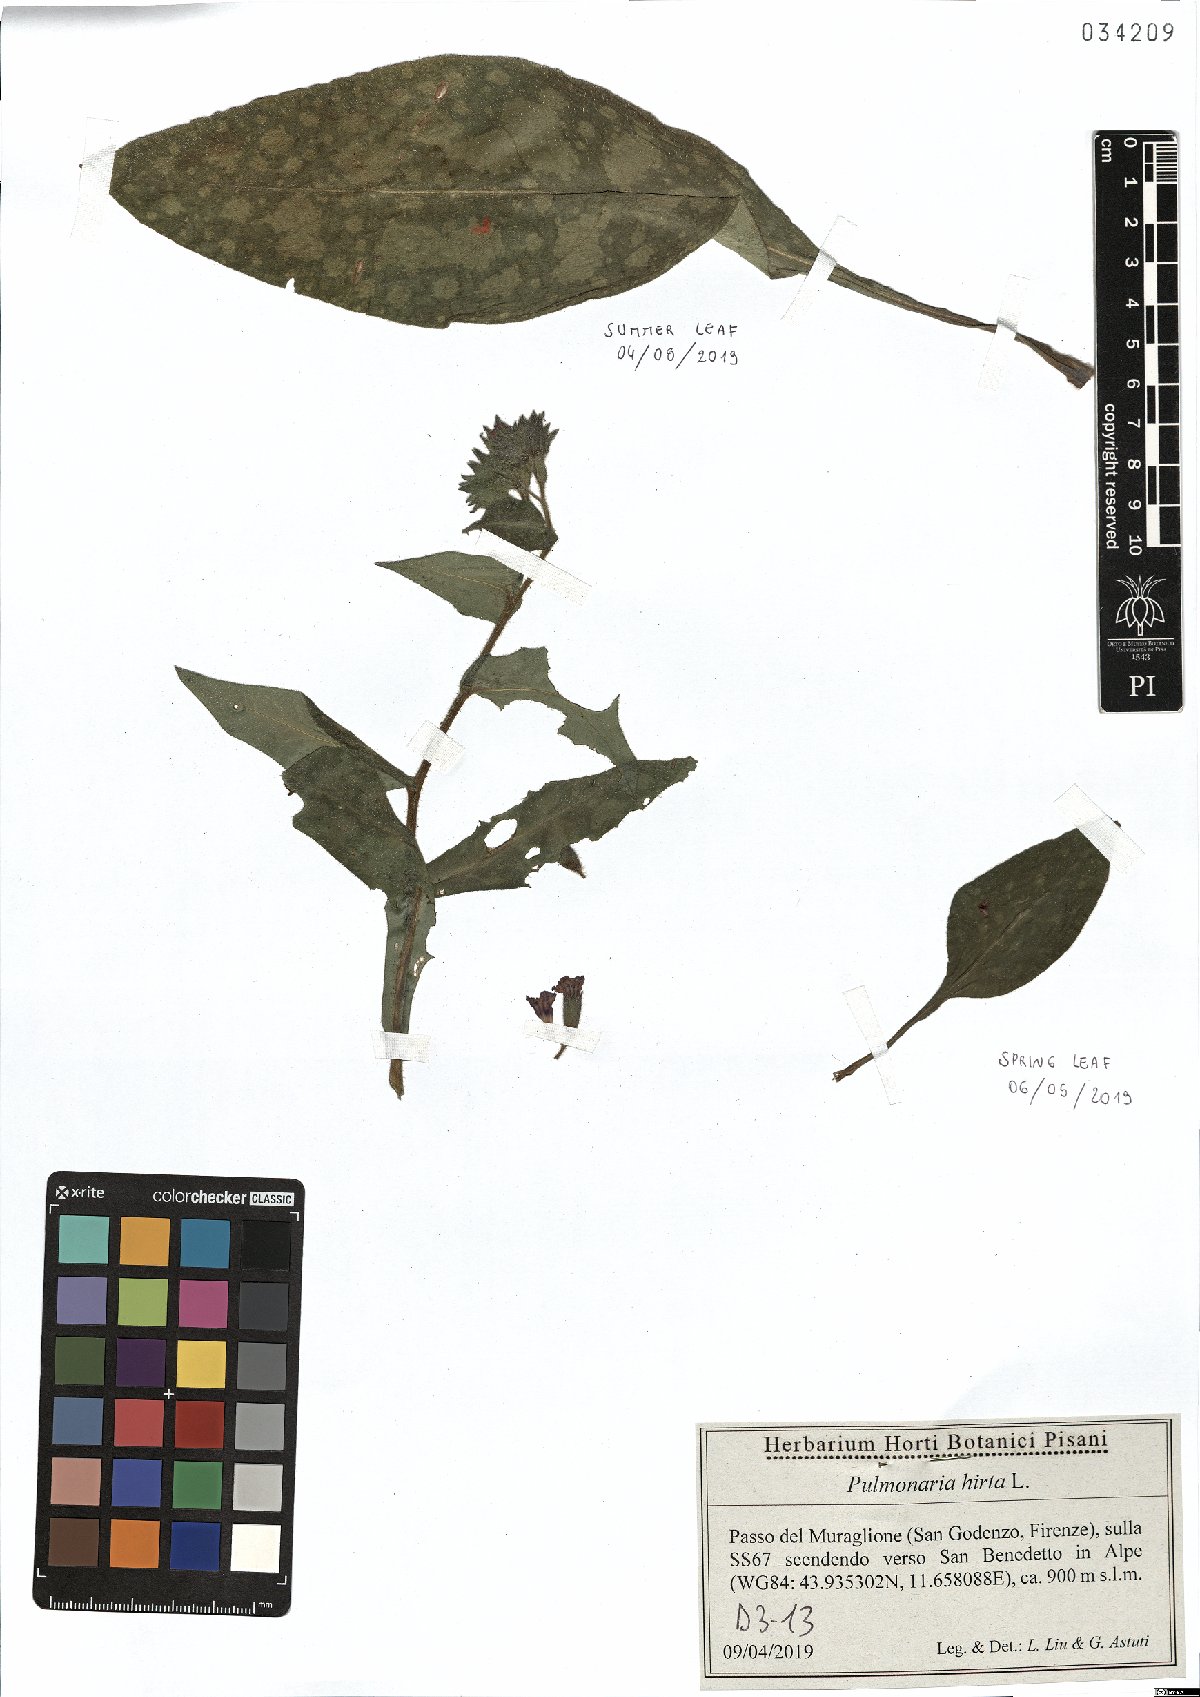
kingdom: Plantae
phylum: Tracheophyta
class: Magnoliopsida
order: Boraginales
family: Boraginaceae
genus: Pulmonaria
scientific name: Pulmonaria hirta
